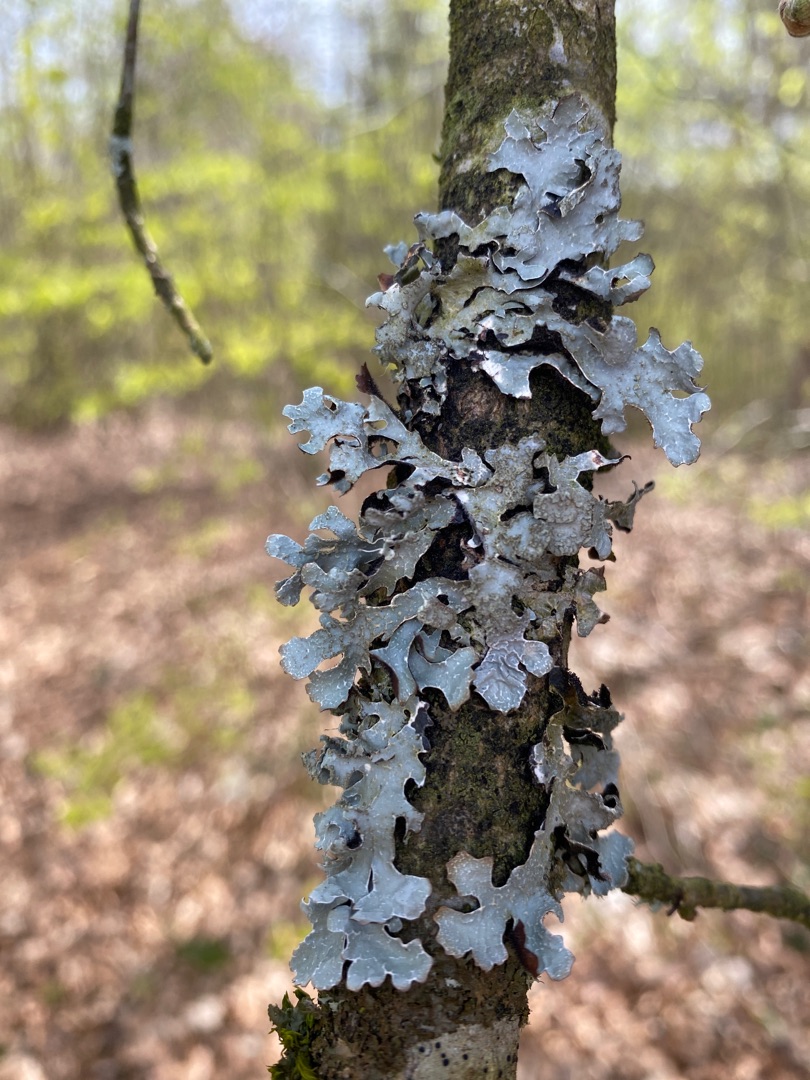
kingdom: Fungi
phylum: Ascomycota
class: Lecanoromycetes
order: Lecanorales
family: Parmeliaceae
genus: Parmelia
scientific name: Parmelia sulcata
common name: Rynket skållav
